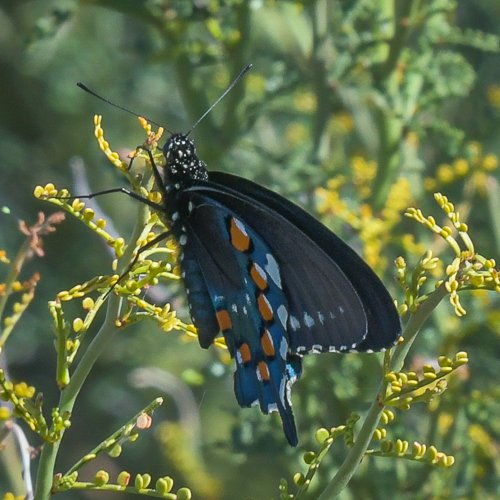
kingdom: Animalia
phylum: Arthropoda
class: Insecta
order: Lepidoptera
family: Papilionidae
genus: Battus
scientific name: Battus philenor
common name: Pipevine Swallowtail
